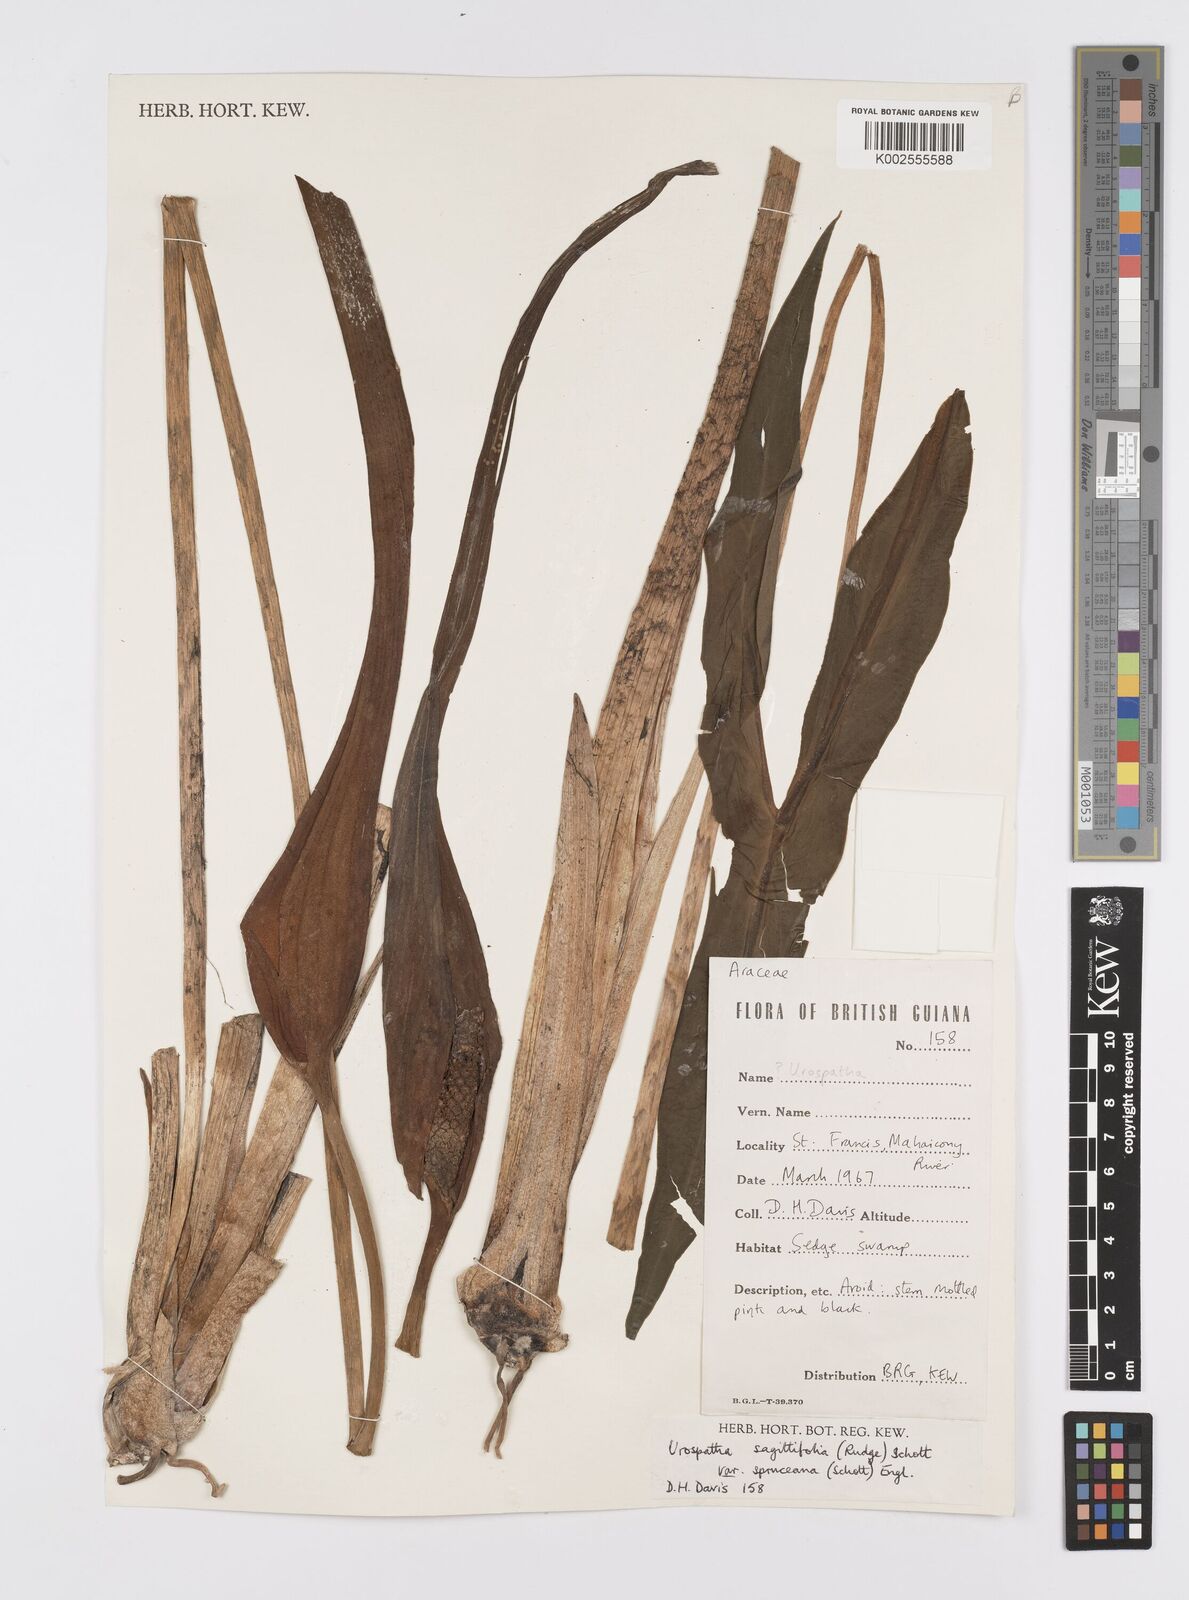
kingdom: Plantae
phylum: Tracheophyta
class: Liliopsida
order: Alismatales
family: Araceae
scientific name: Araceae
